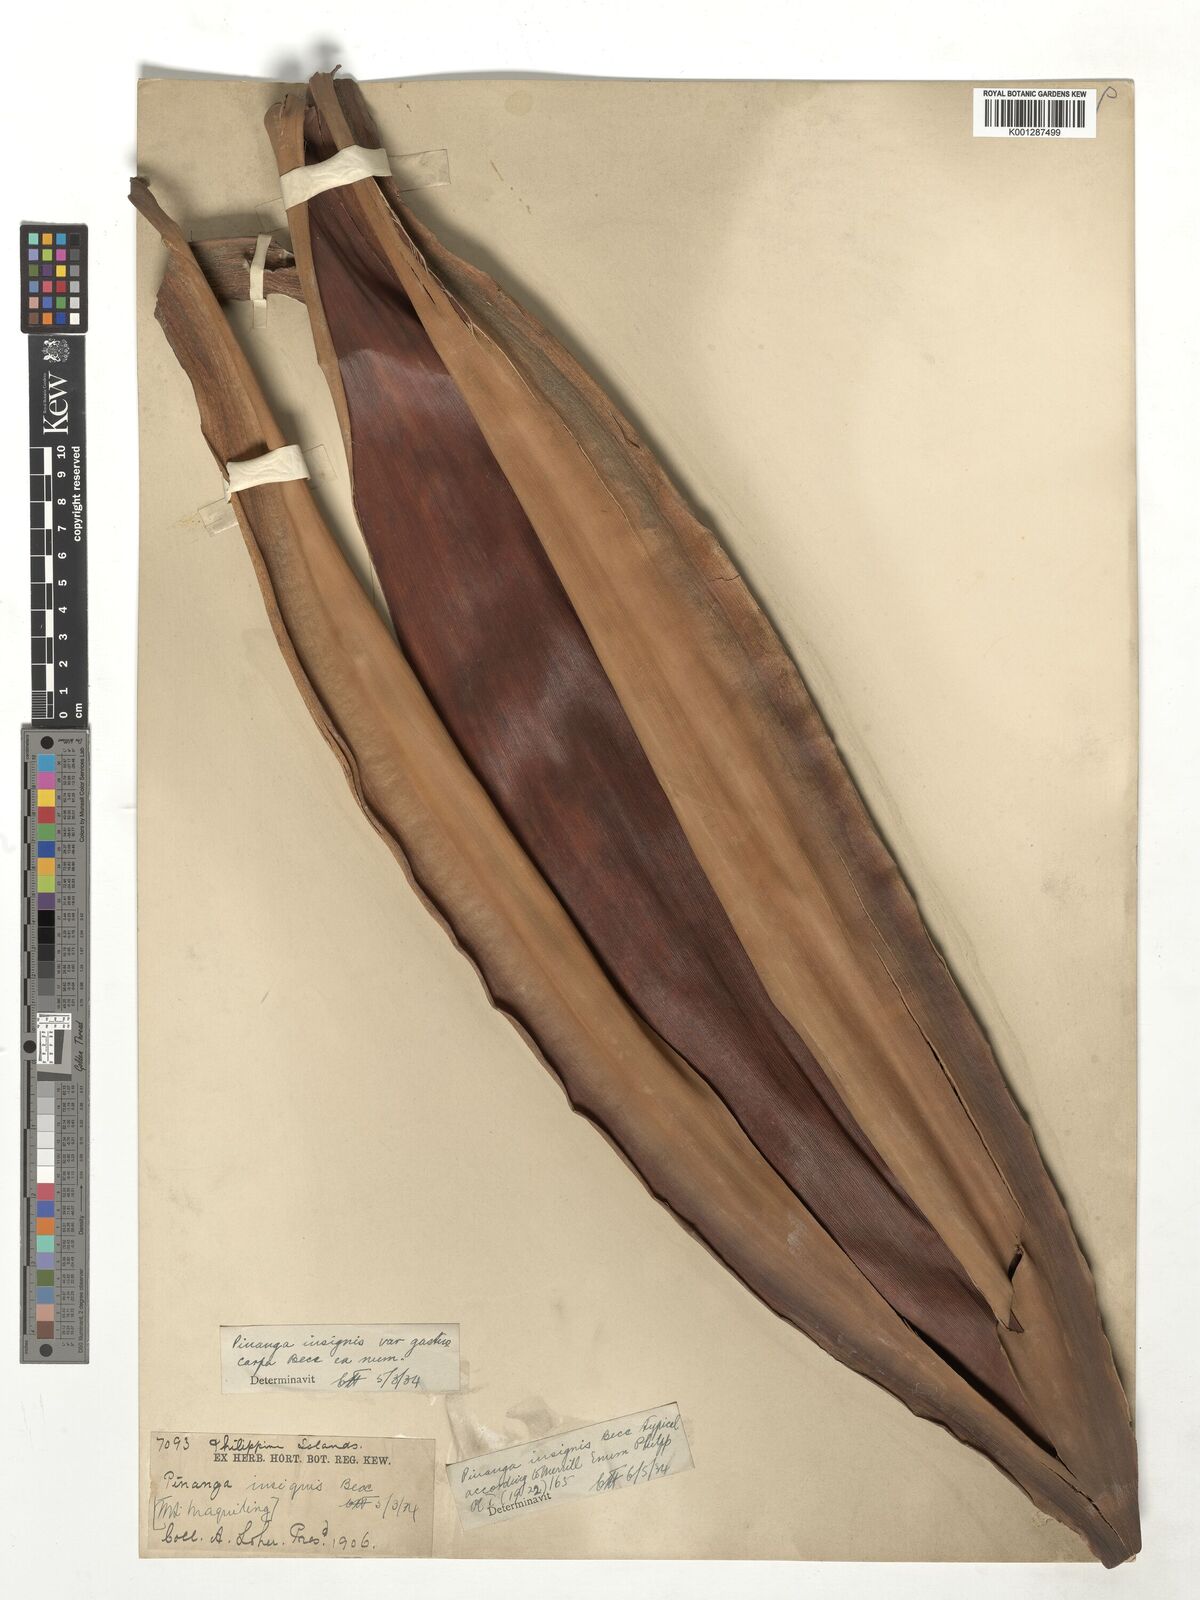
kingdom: Plantae
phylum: Tracheophyta
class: Liliopsida
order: Arecales
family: Arecaceae
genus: Pinanga
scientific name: Pinanga insignis
